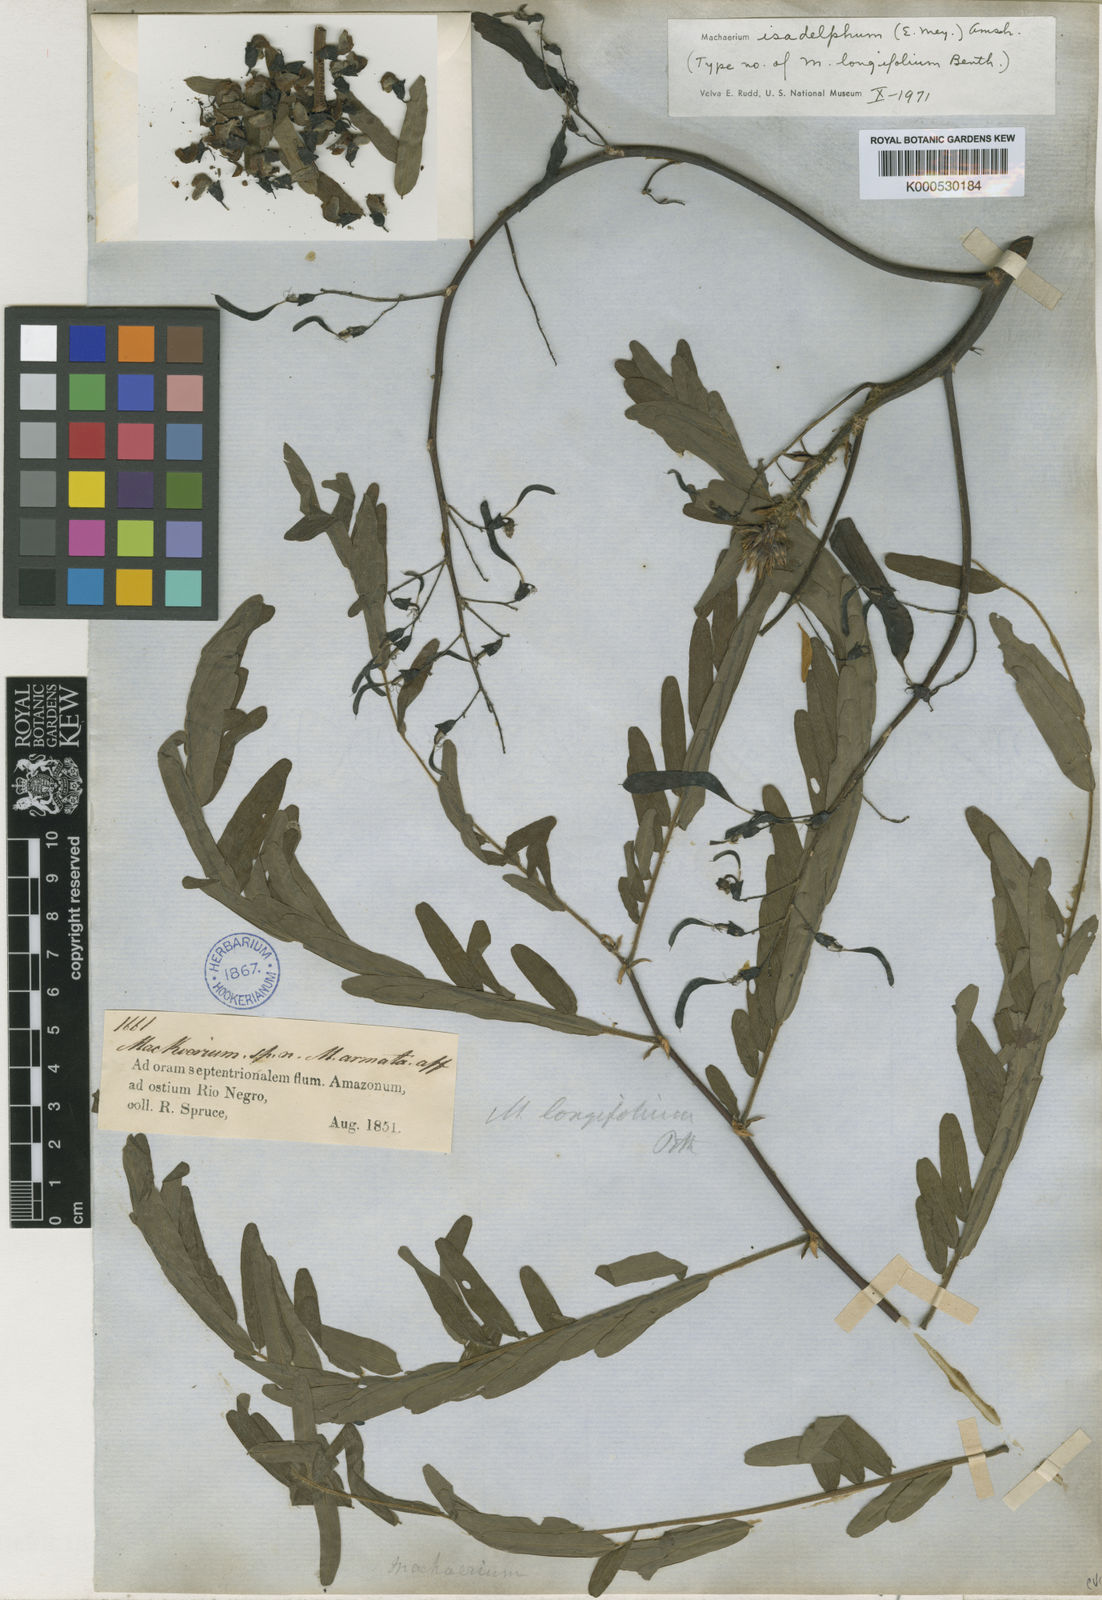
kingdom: Plantae
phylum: Tracheophyta
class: Magnoliopsida
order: Fabales
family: Fabaceae
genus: Machaerium
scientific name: Machaerium isadelphum
